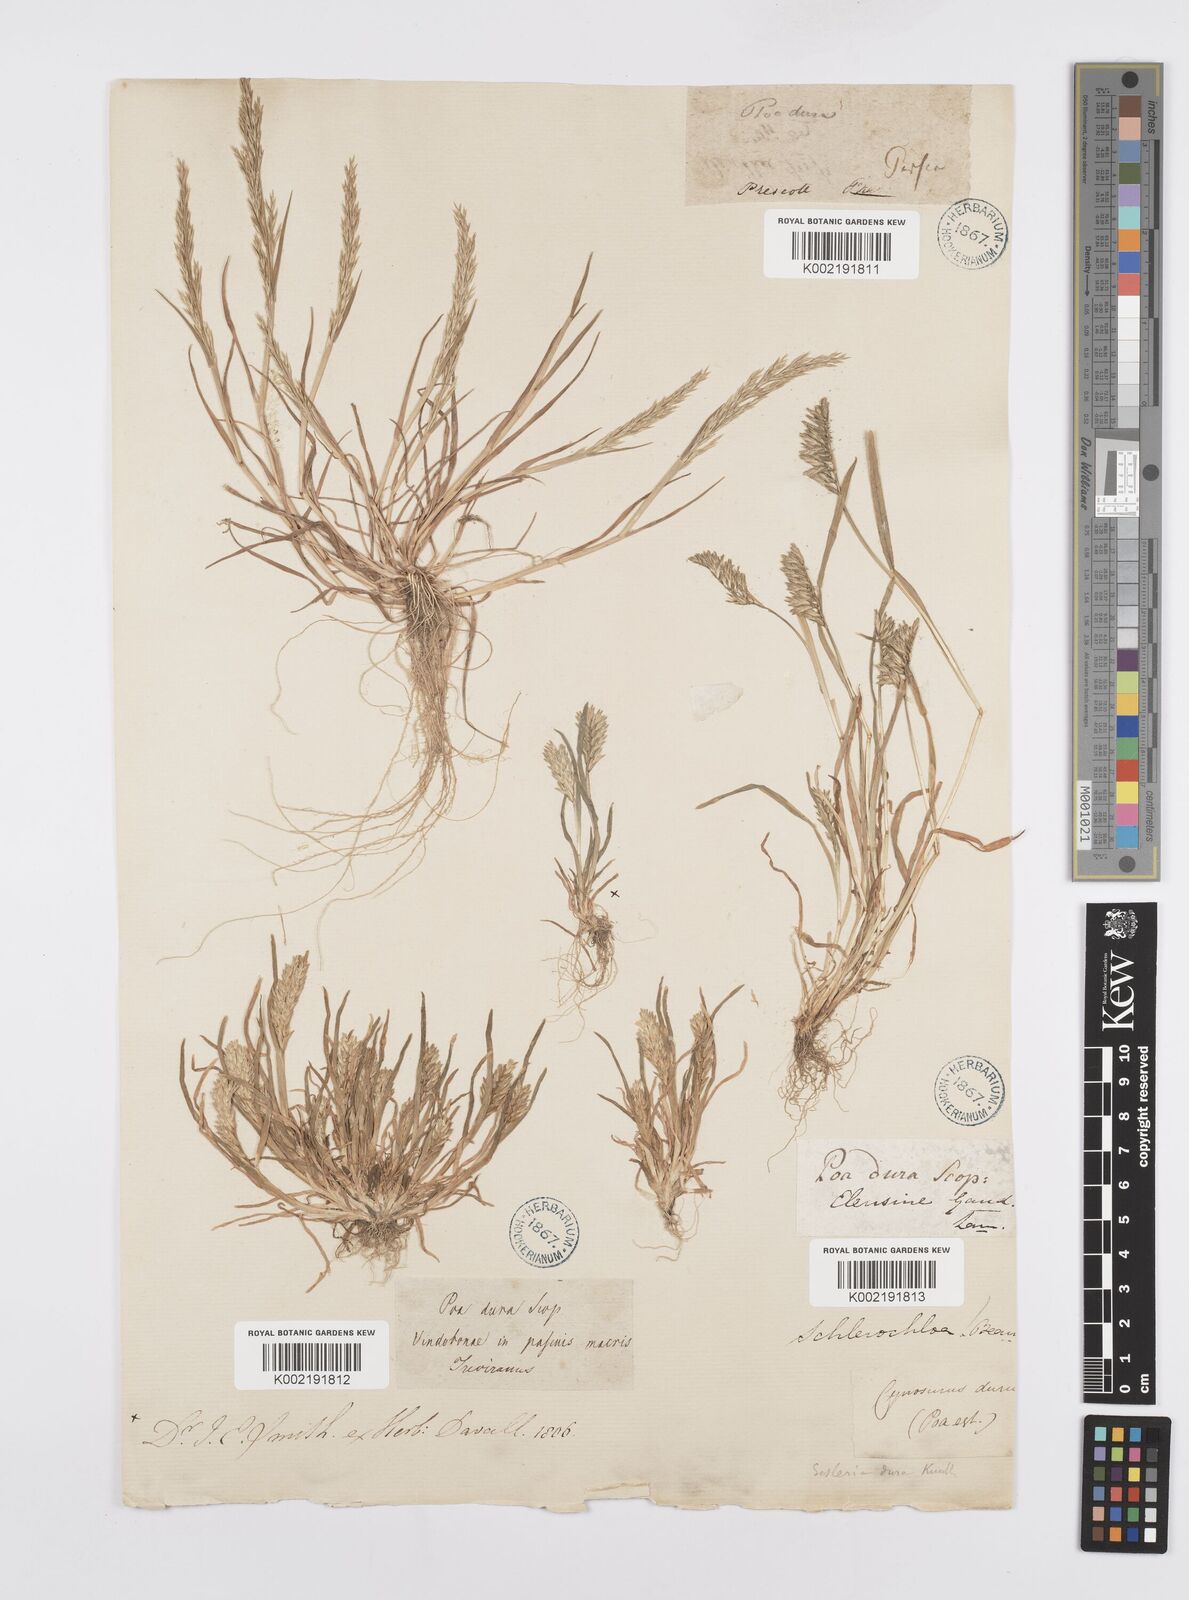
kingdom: Plantae
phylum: Tracheophyta
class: Liliopsida
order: Poales
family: Poaceae
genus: Sclerochloa
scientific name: Sclerochloa dura
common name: Common hardgrass
